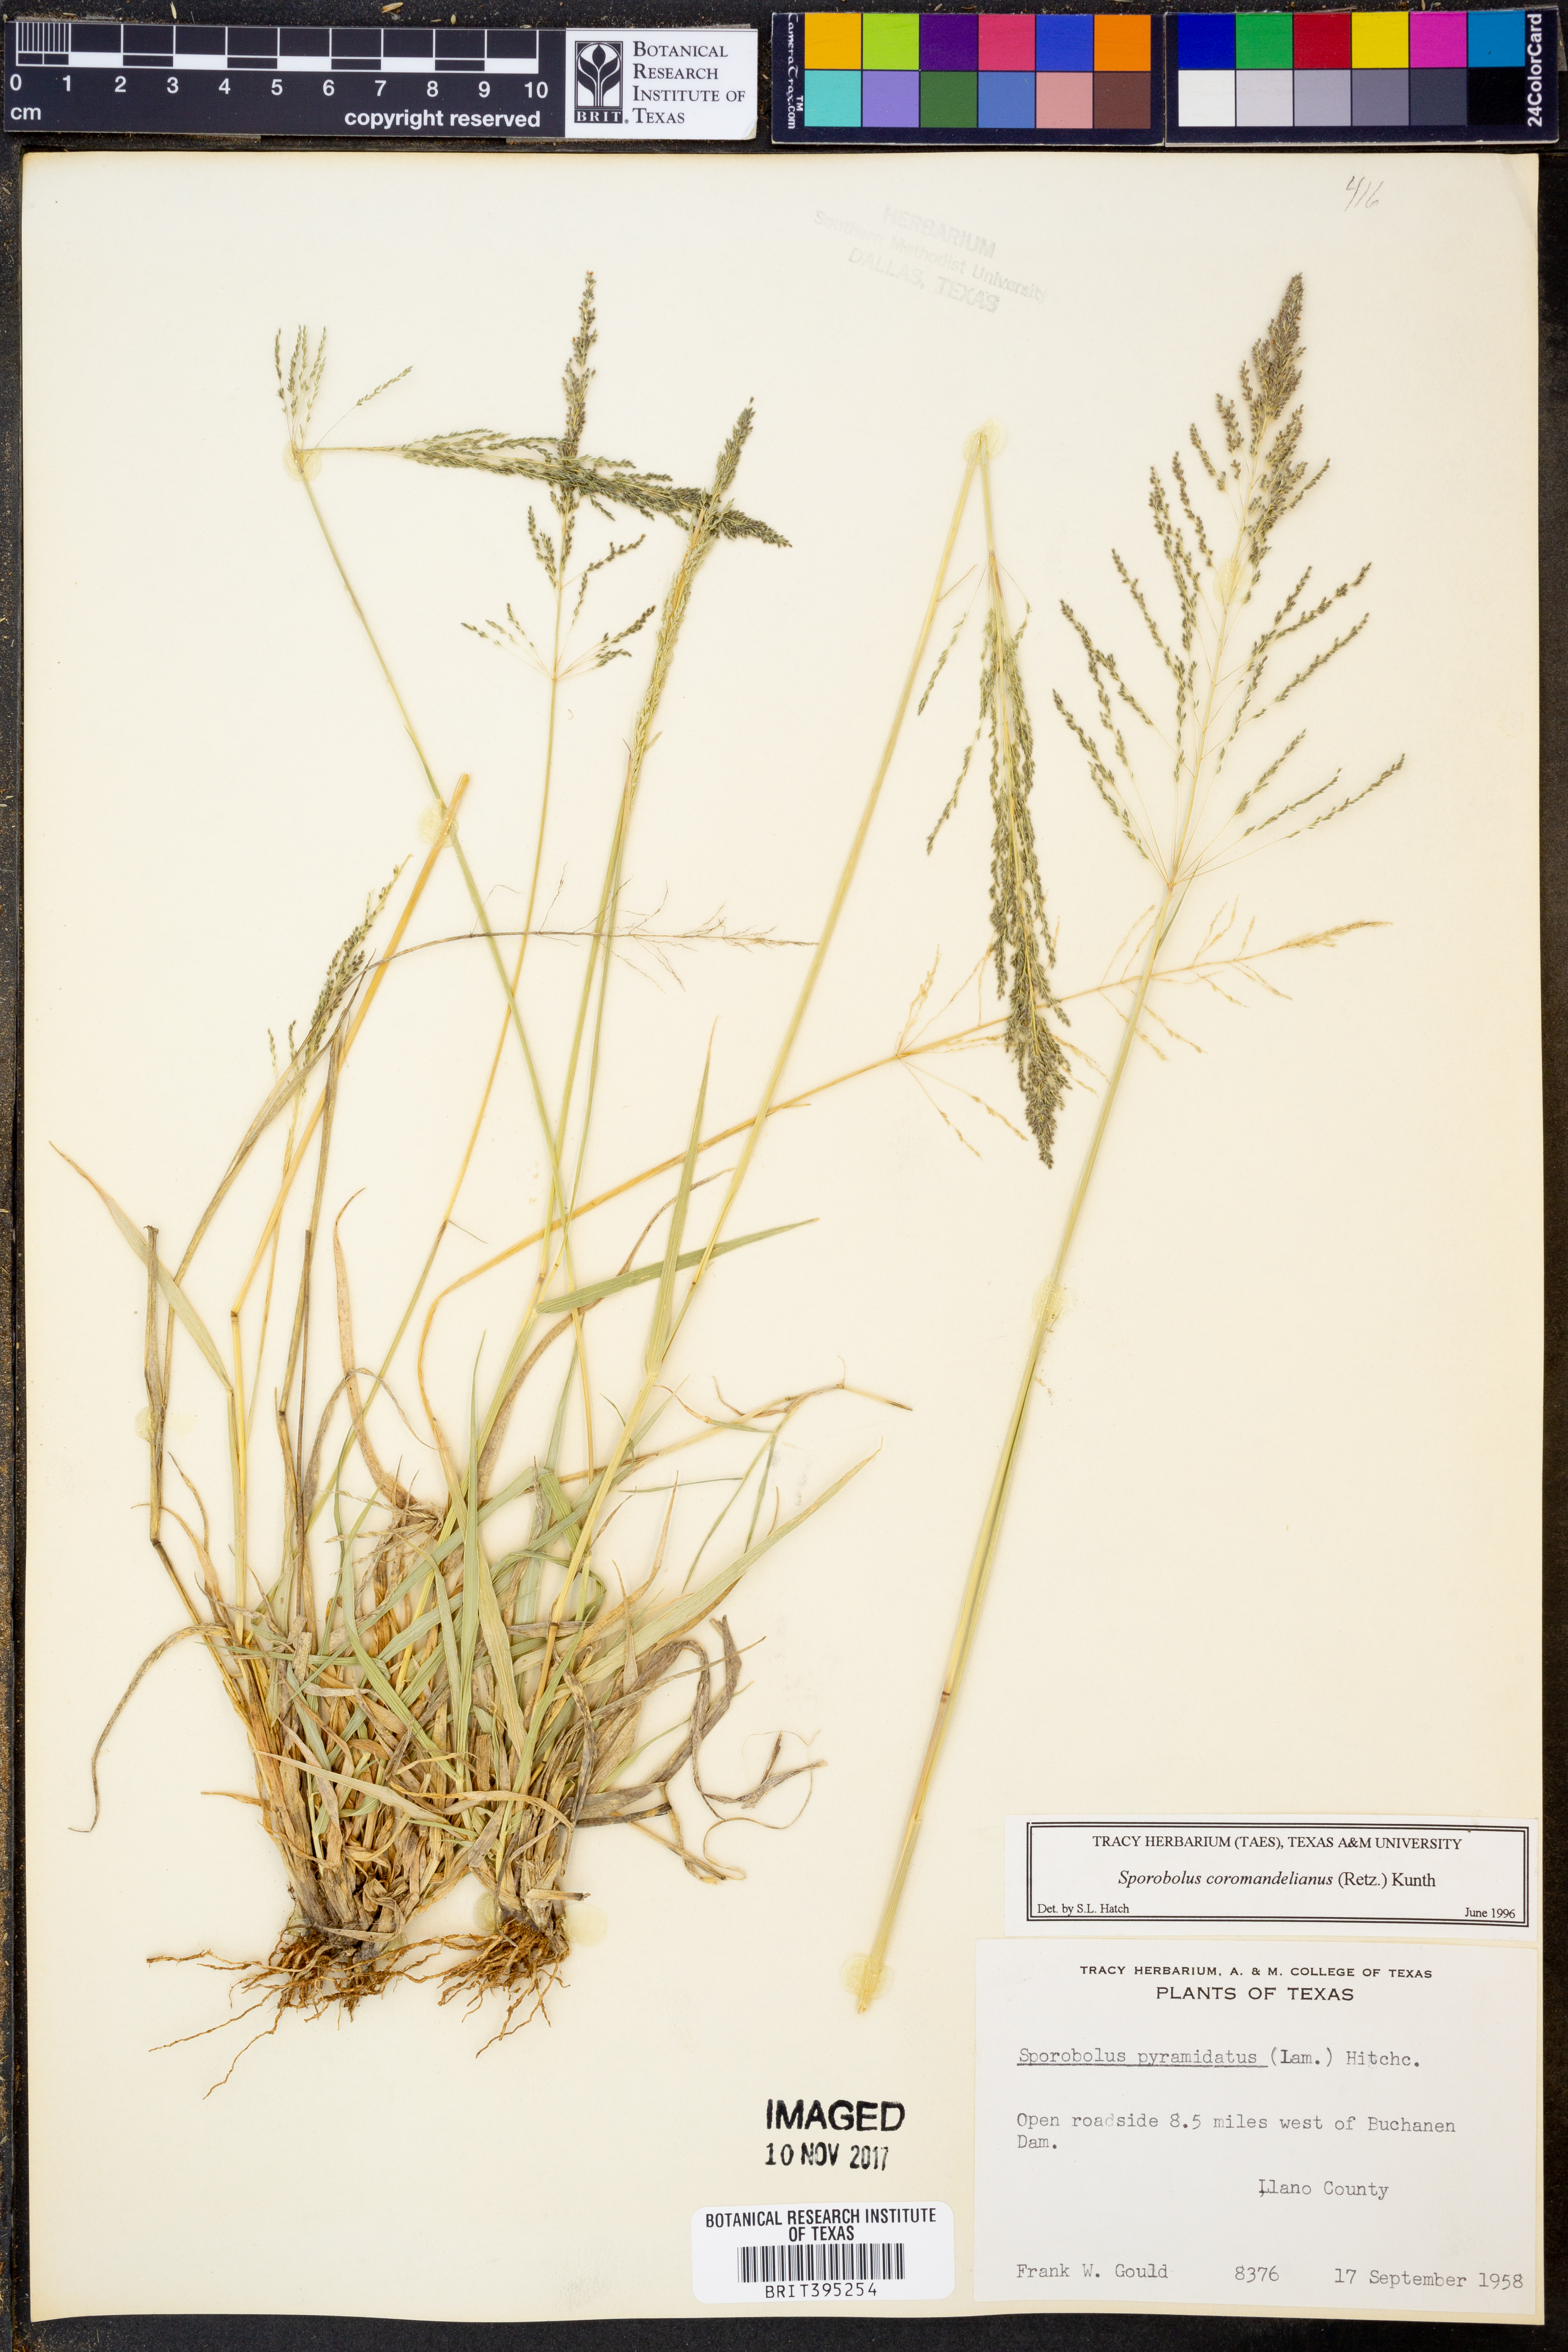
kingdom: Plantae
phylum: Tracheophyta
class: Liliopsida
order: Poales
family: Poaceae
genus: Sporobolus
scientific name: Sporobolus coromandelianus
